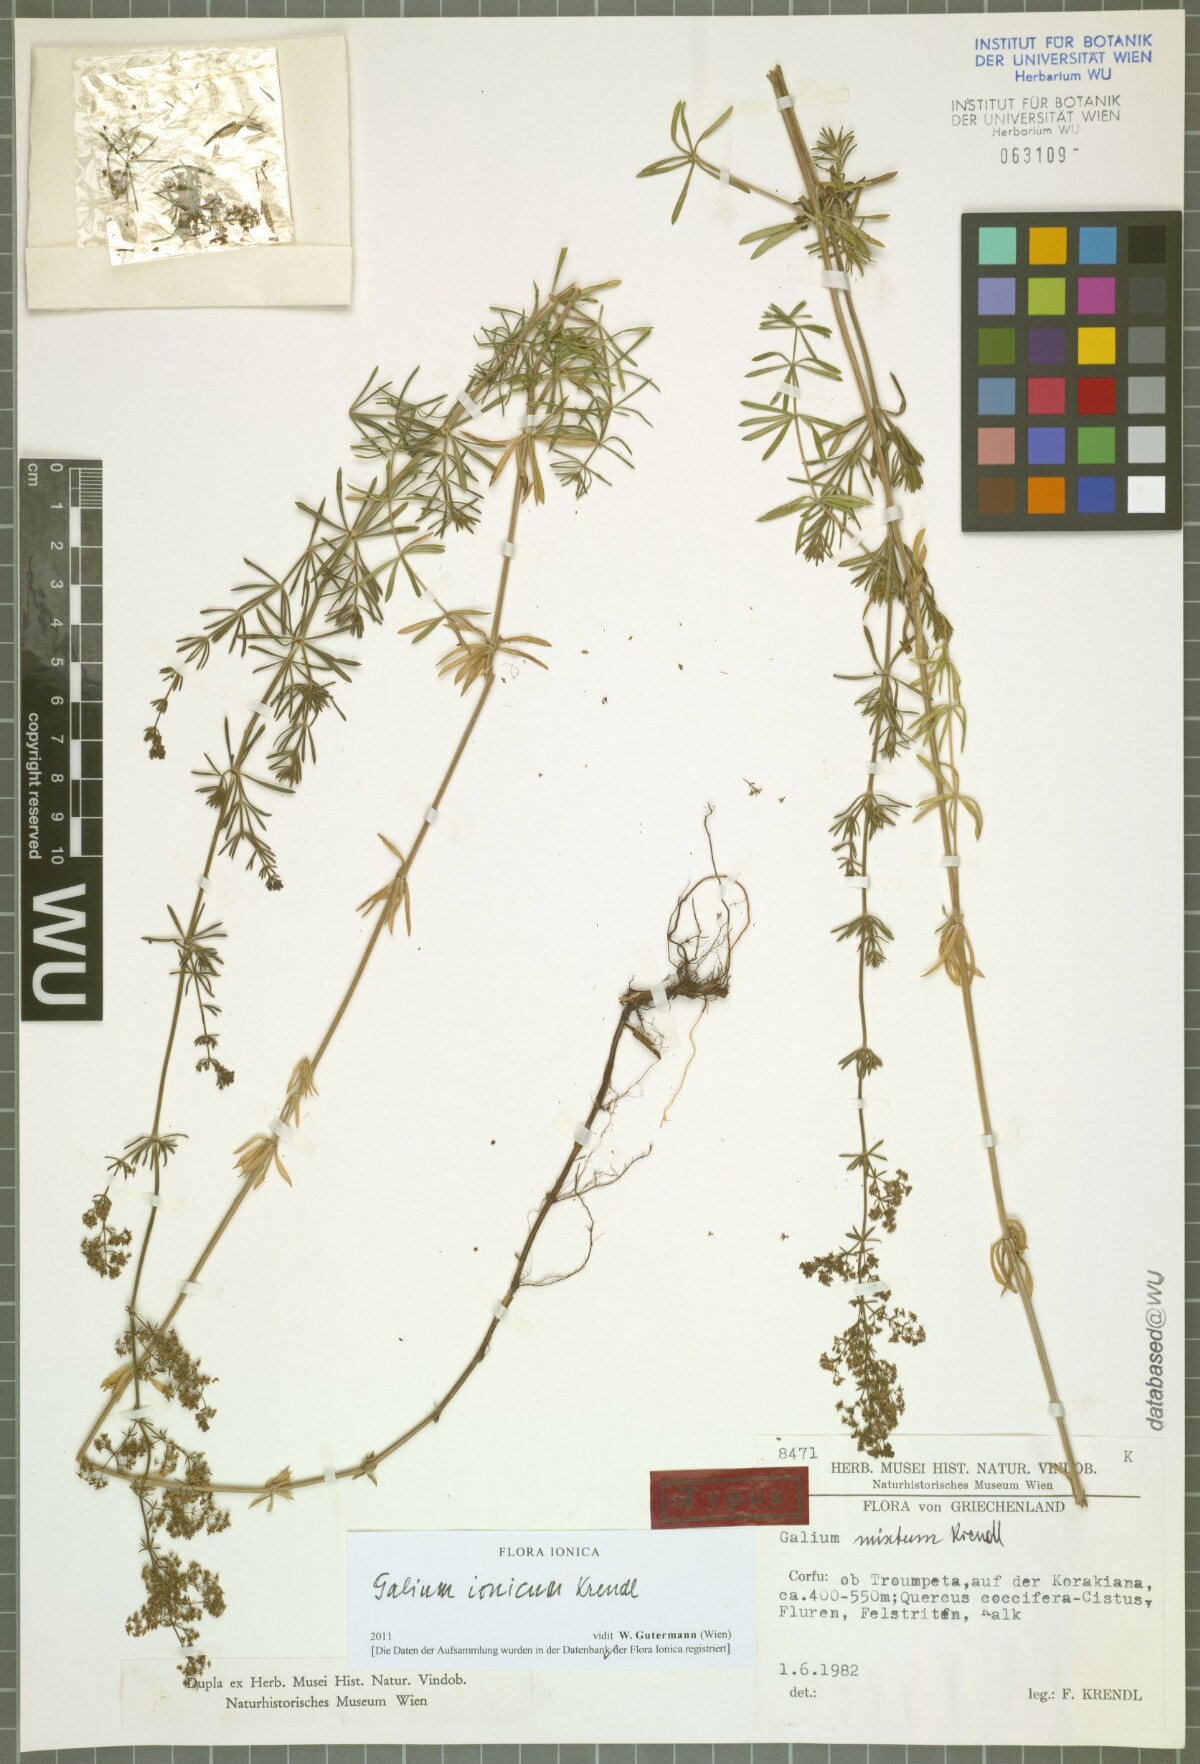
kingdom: Plantae
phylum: Tracheophyta
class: Magnoliopsida
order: Gentianales
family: Rubiaceae
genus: Galium
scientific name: Galium ionicum
